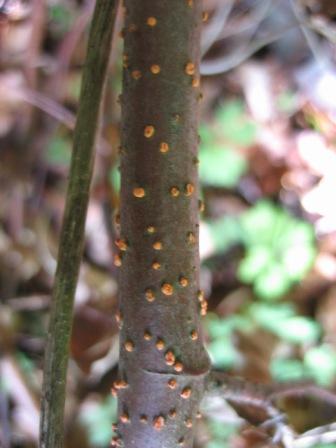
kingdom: Fungi
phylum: Ascomycota
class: Sordariomycetes
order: Hypocreales
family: Nectriaceae
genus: Nectria
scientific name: Nectria cinnabarina
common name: almindelig cinnobersvamp
